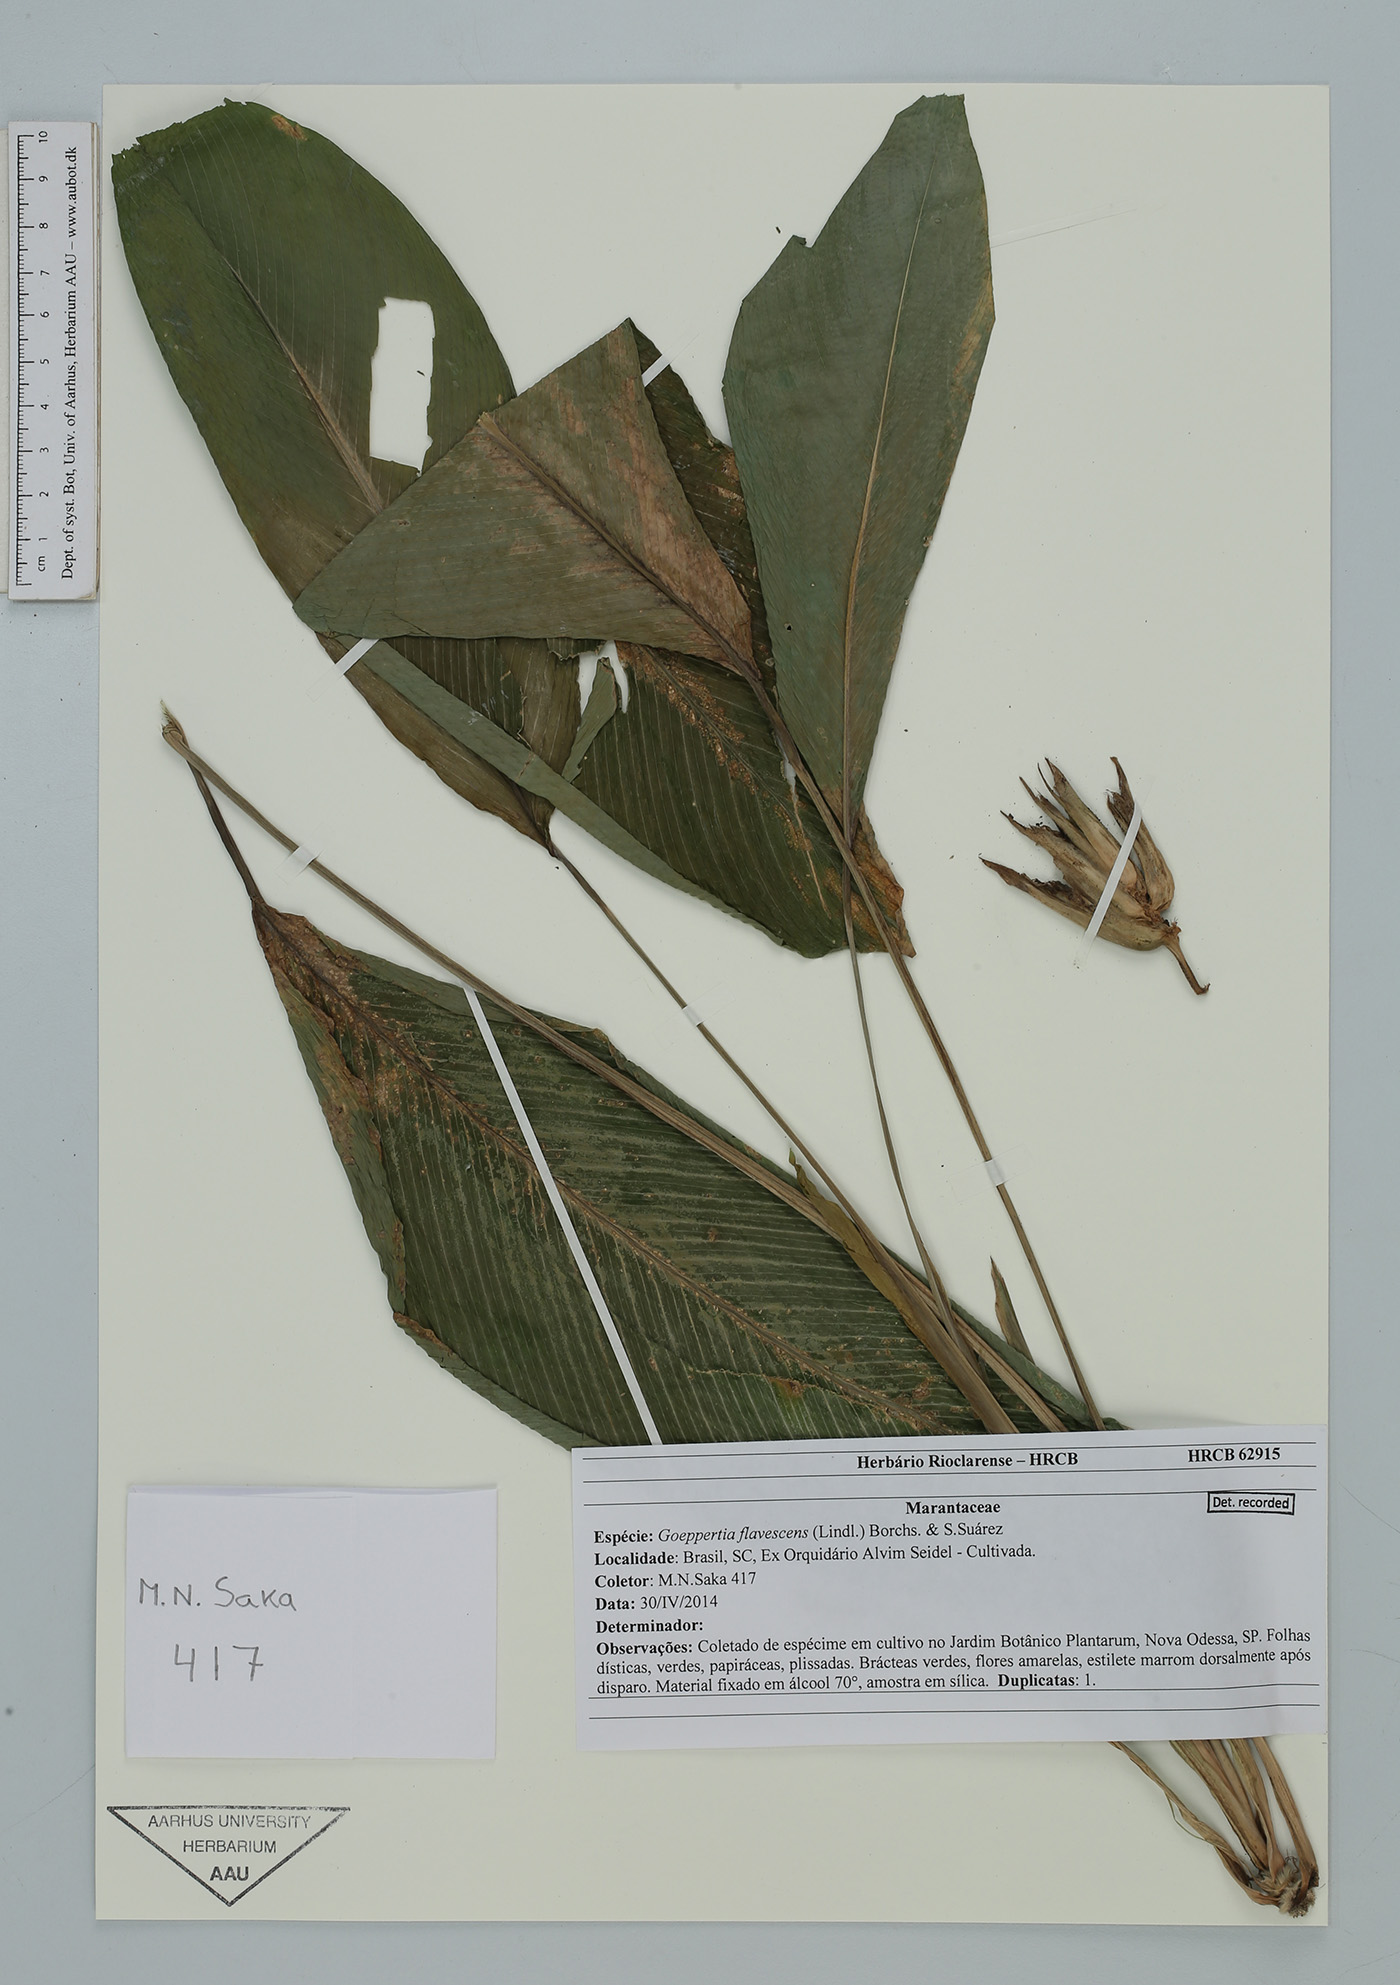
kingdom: Plantae
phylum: Tracheophyta
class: Liliopsida
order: Zingiberales
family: Marantaceae
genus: Goeppertia
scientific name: Goeppertia flavescens
